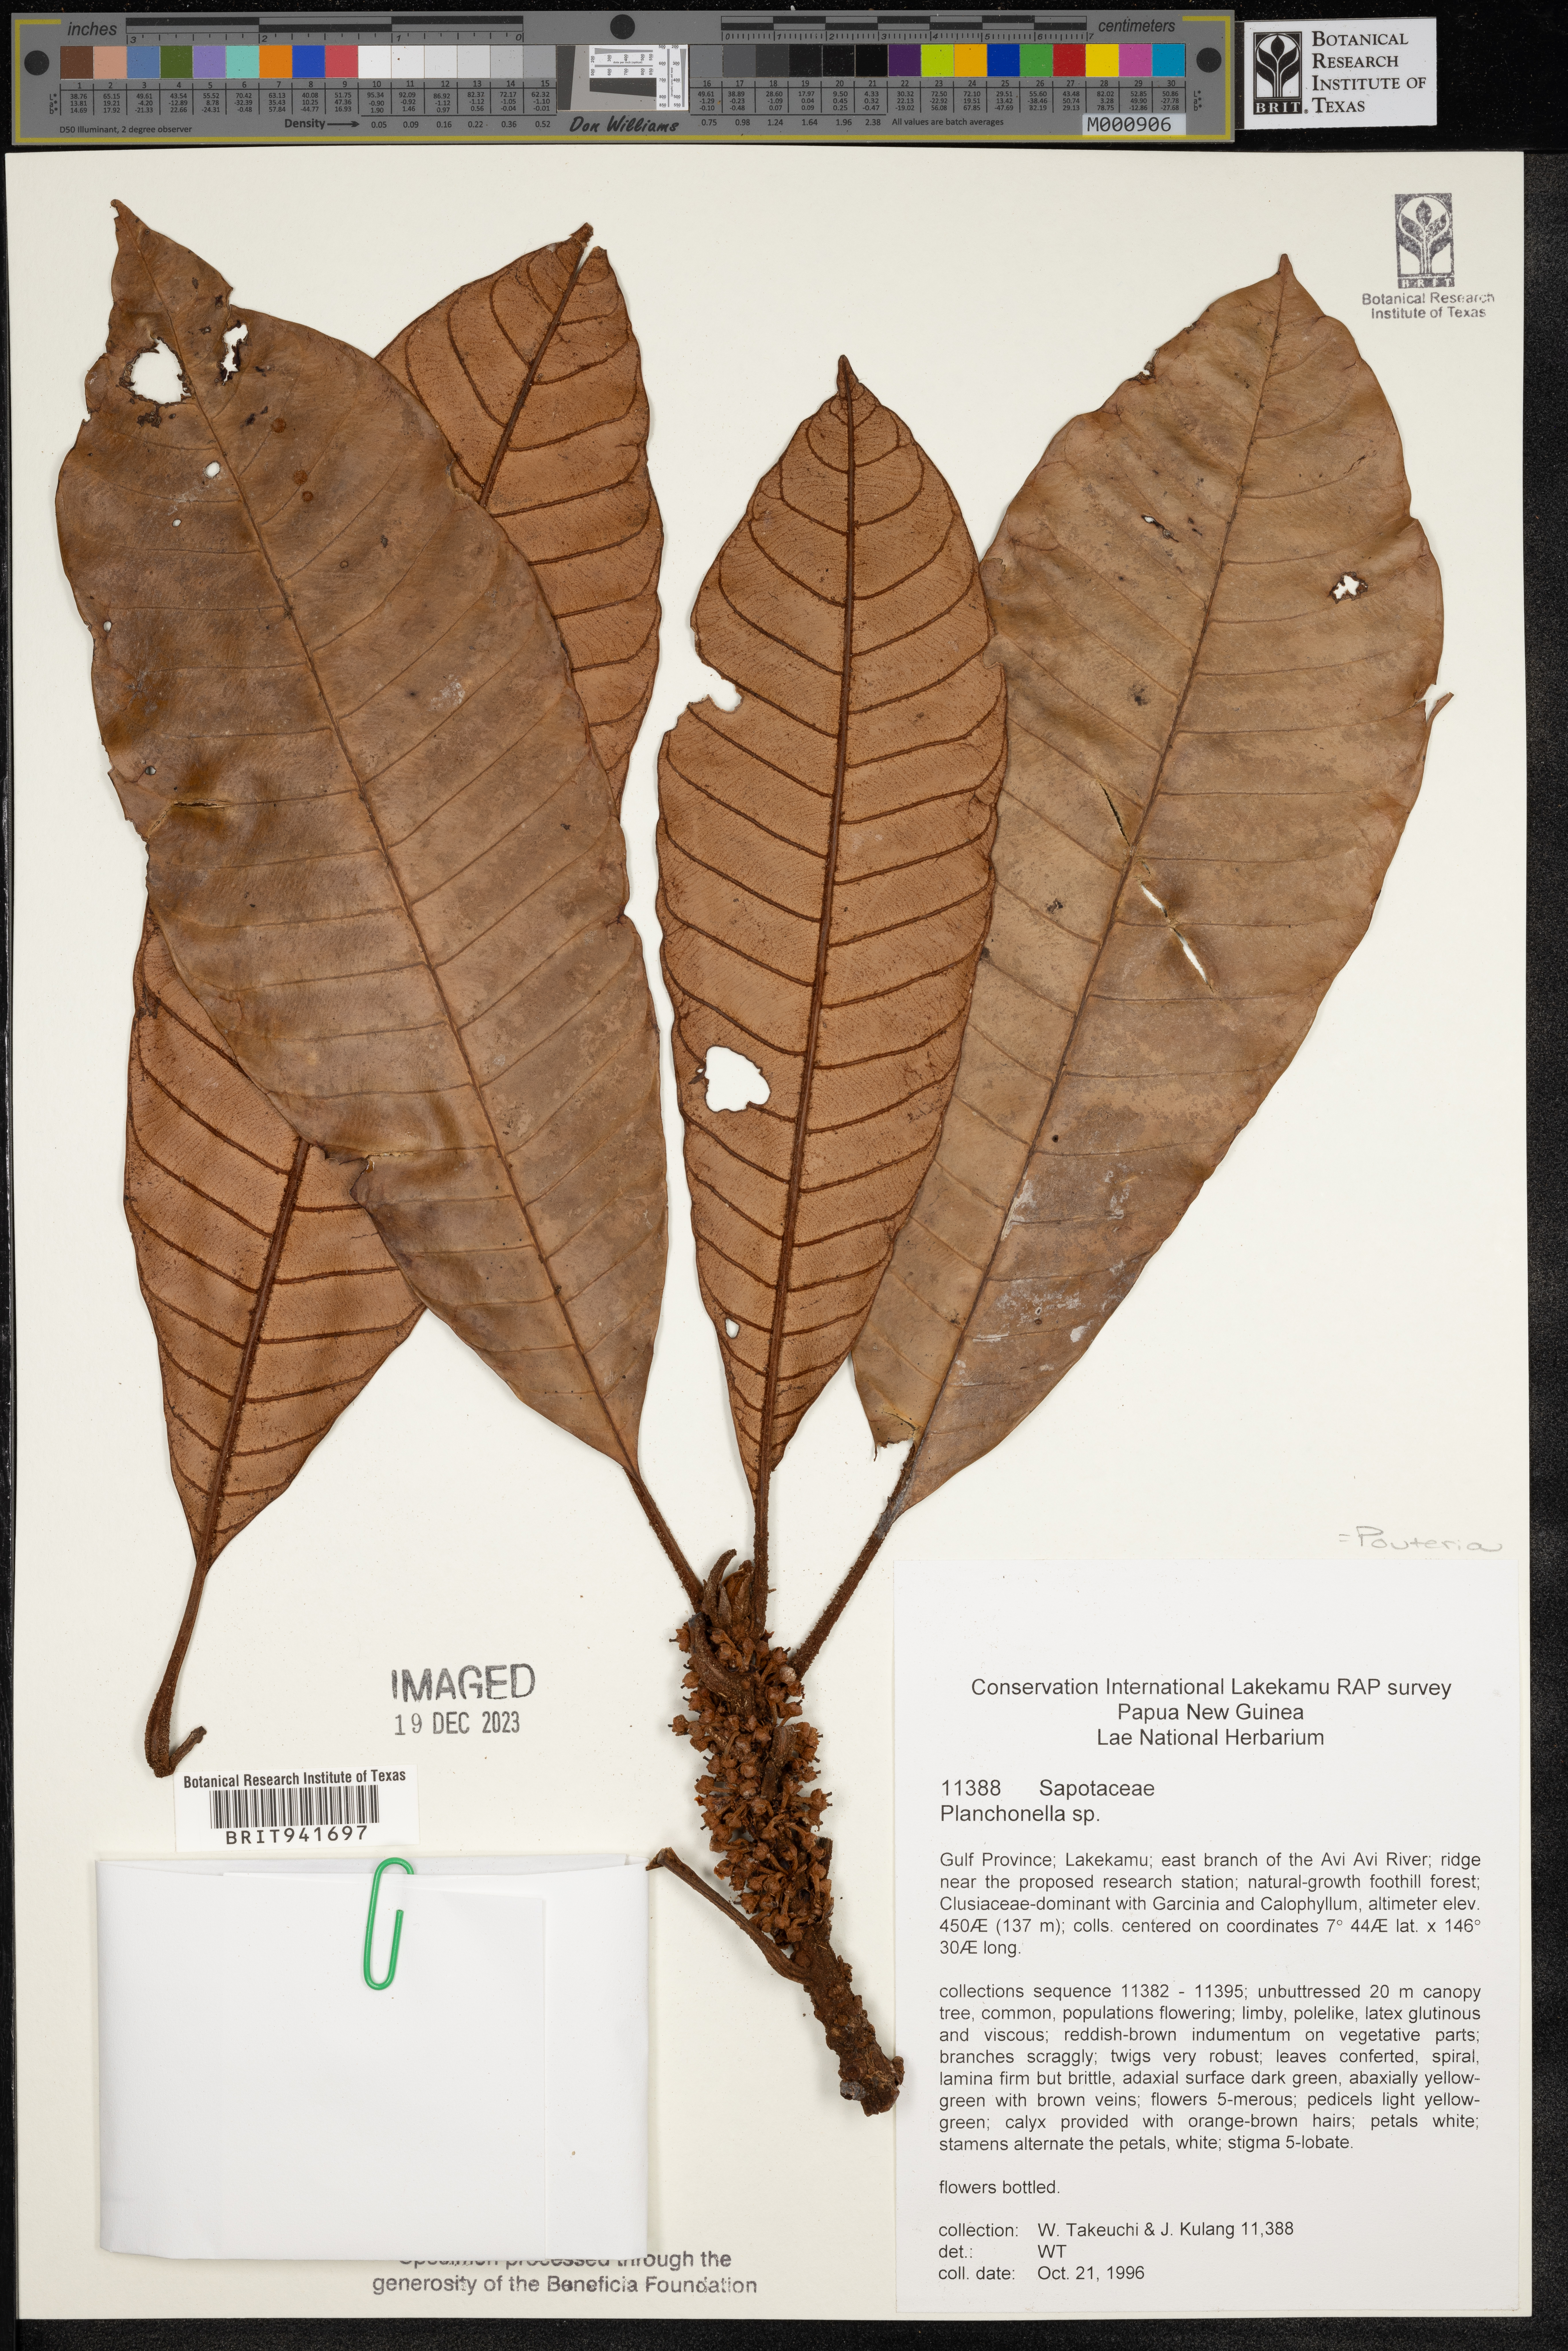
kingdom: Plantae
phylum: Tracheophyta
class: Magnoliopsida
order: Ericales
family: Sapotaceae
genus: Pouteria
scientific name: Pouteria
